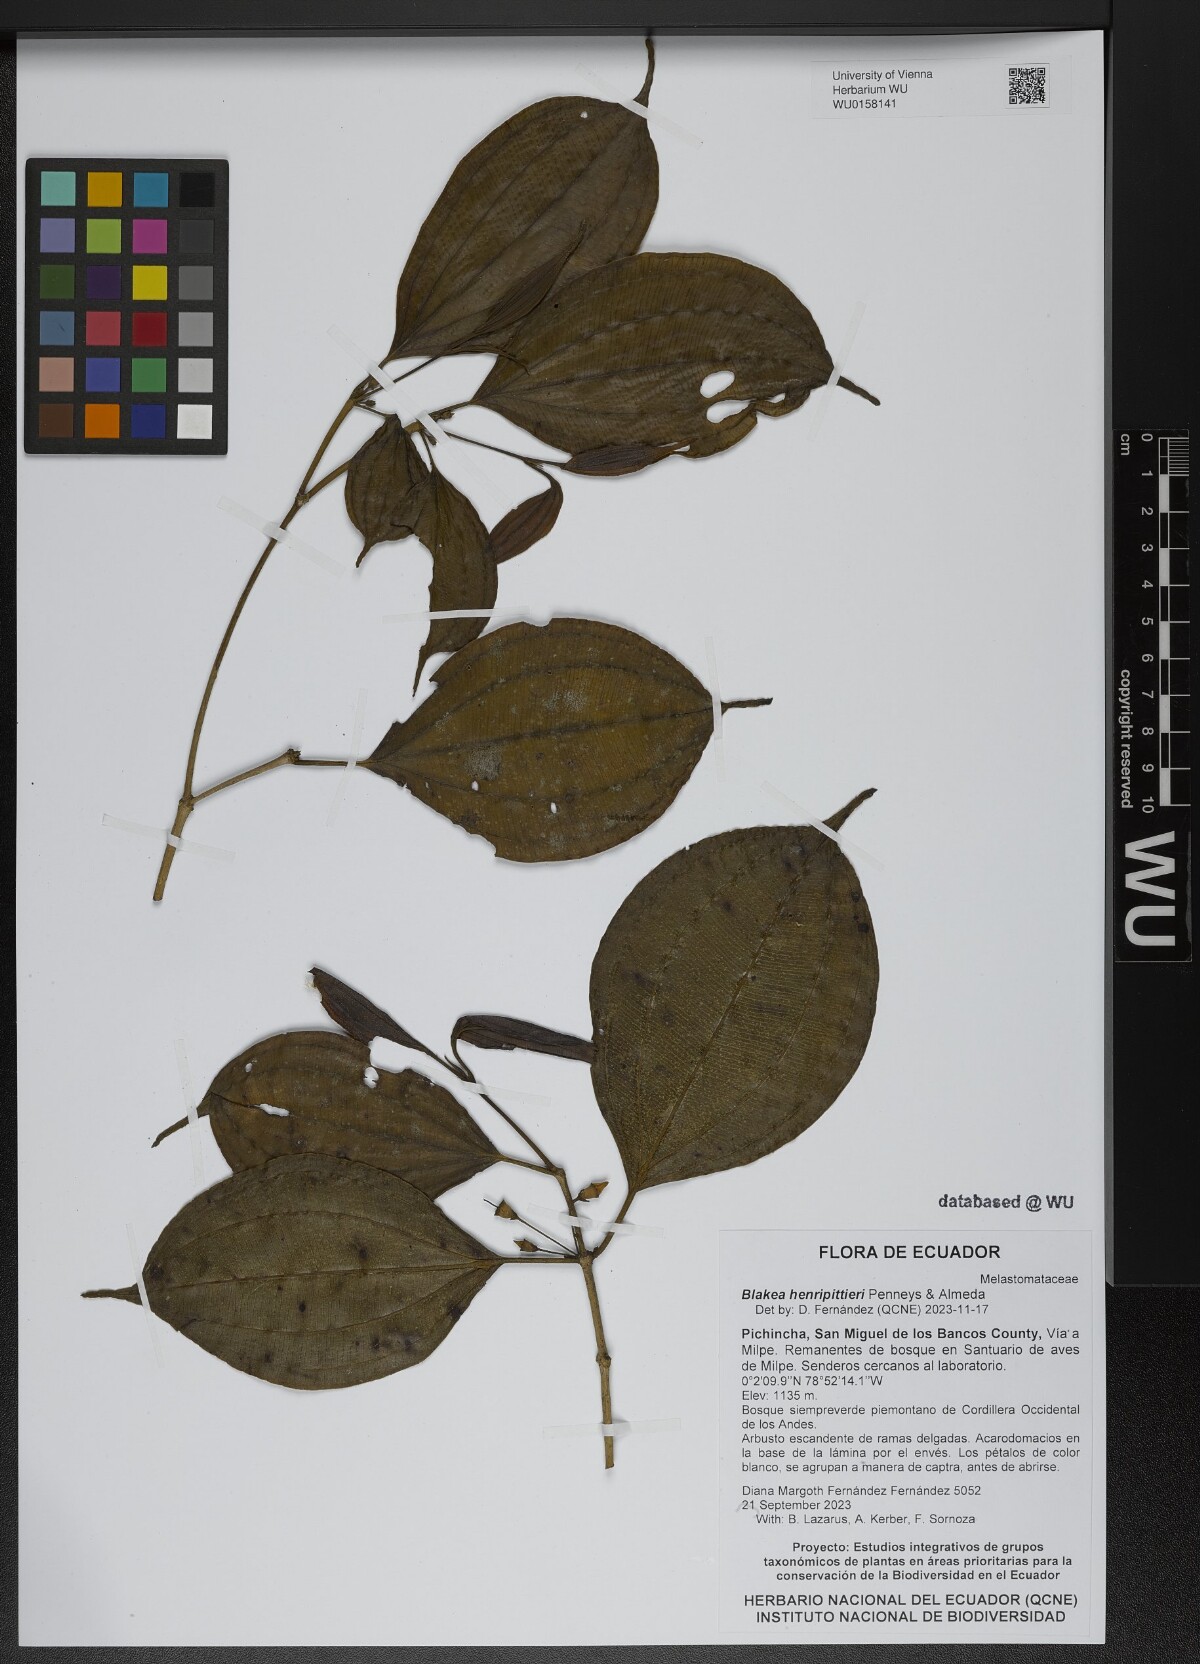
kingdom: Plantae
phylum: Tracheophyta
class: Magnoliopsida
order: Myrtales
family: Melastomataceae
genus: Blakea
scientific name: Blakea henripittieri
